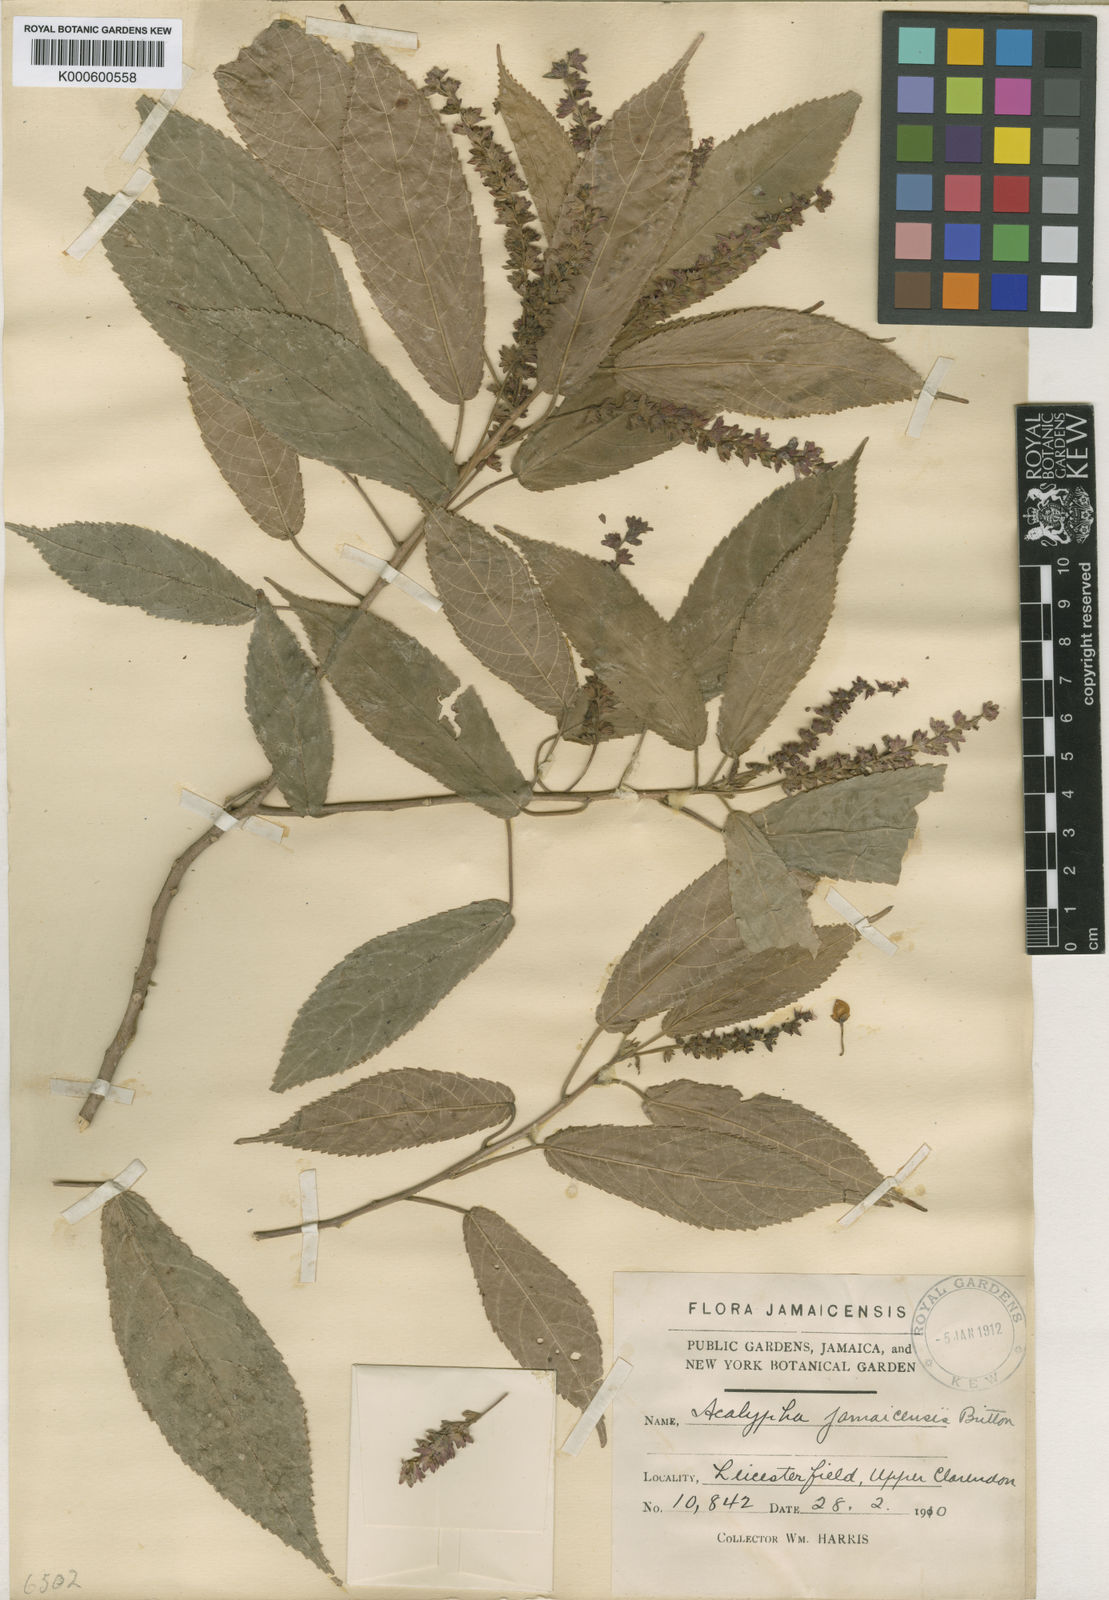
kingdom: Plantae
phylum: Tracheophyta
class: Magnoliopsida
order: Malpighiales
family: Euphorbiaceae
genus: Acalypha
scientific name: Acalypha leicesterfieldiensis
